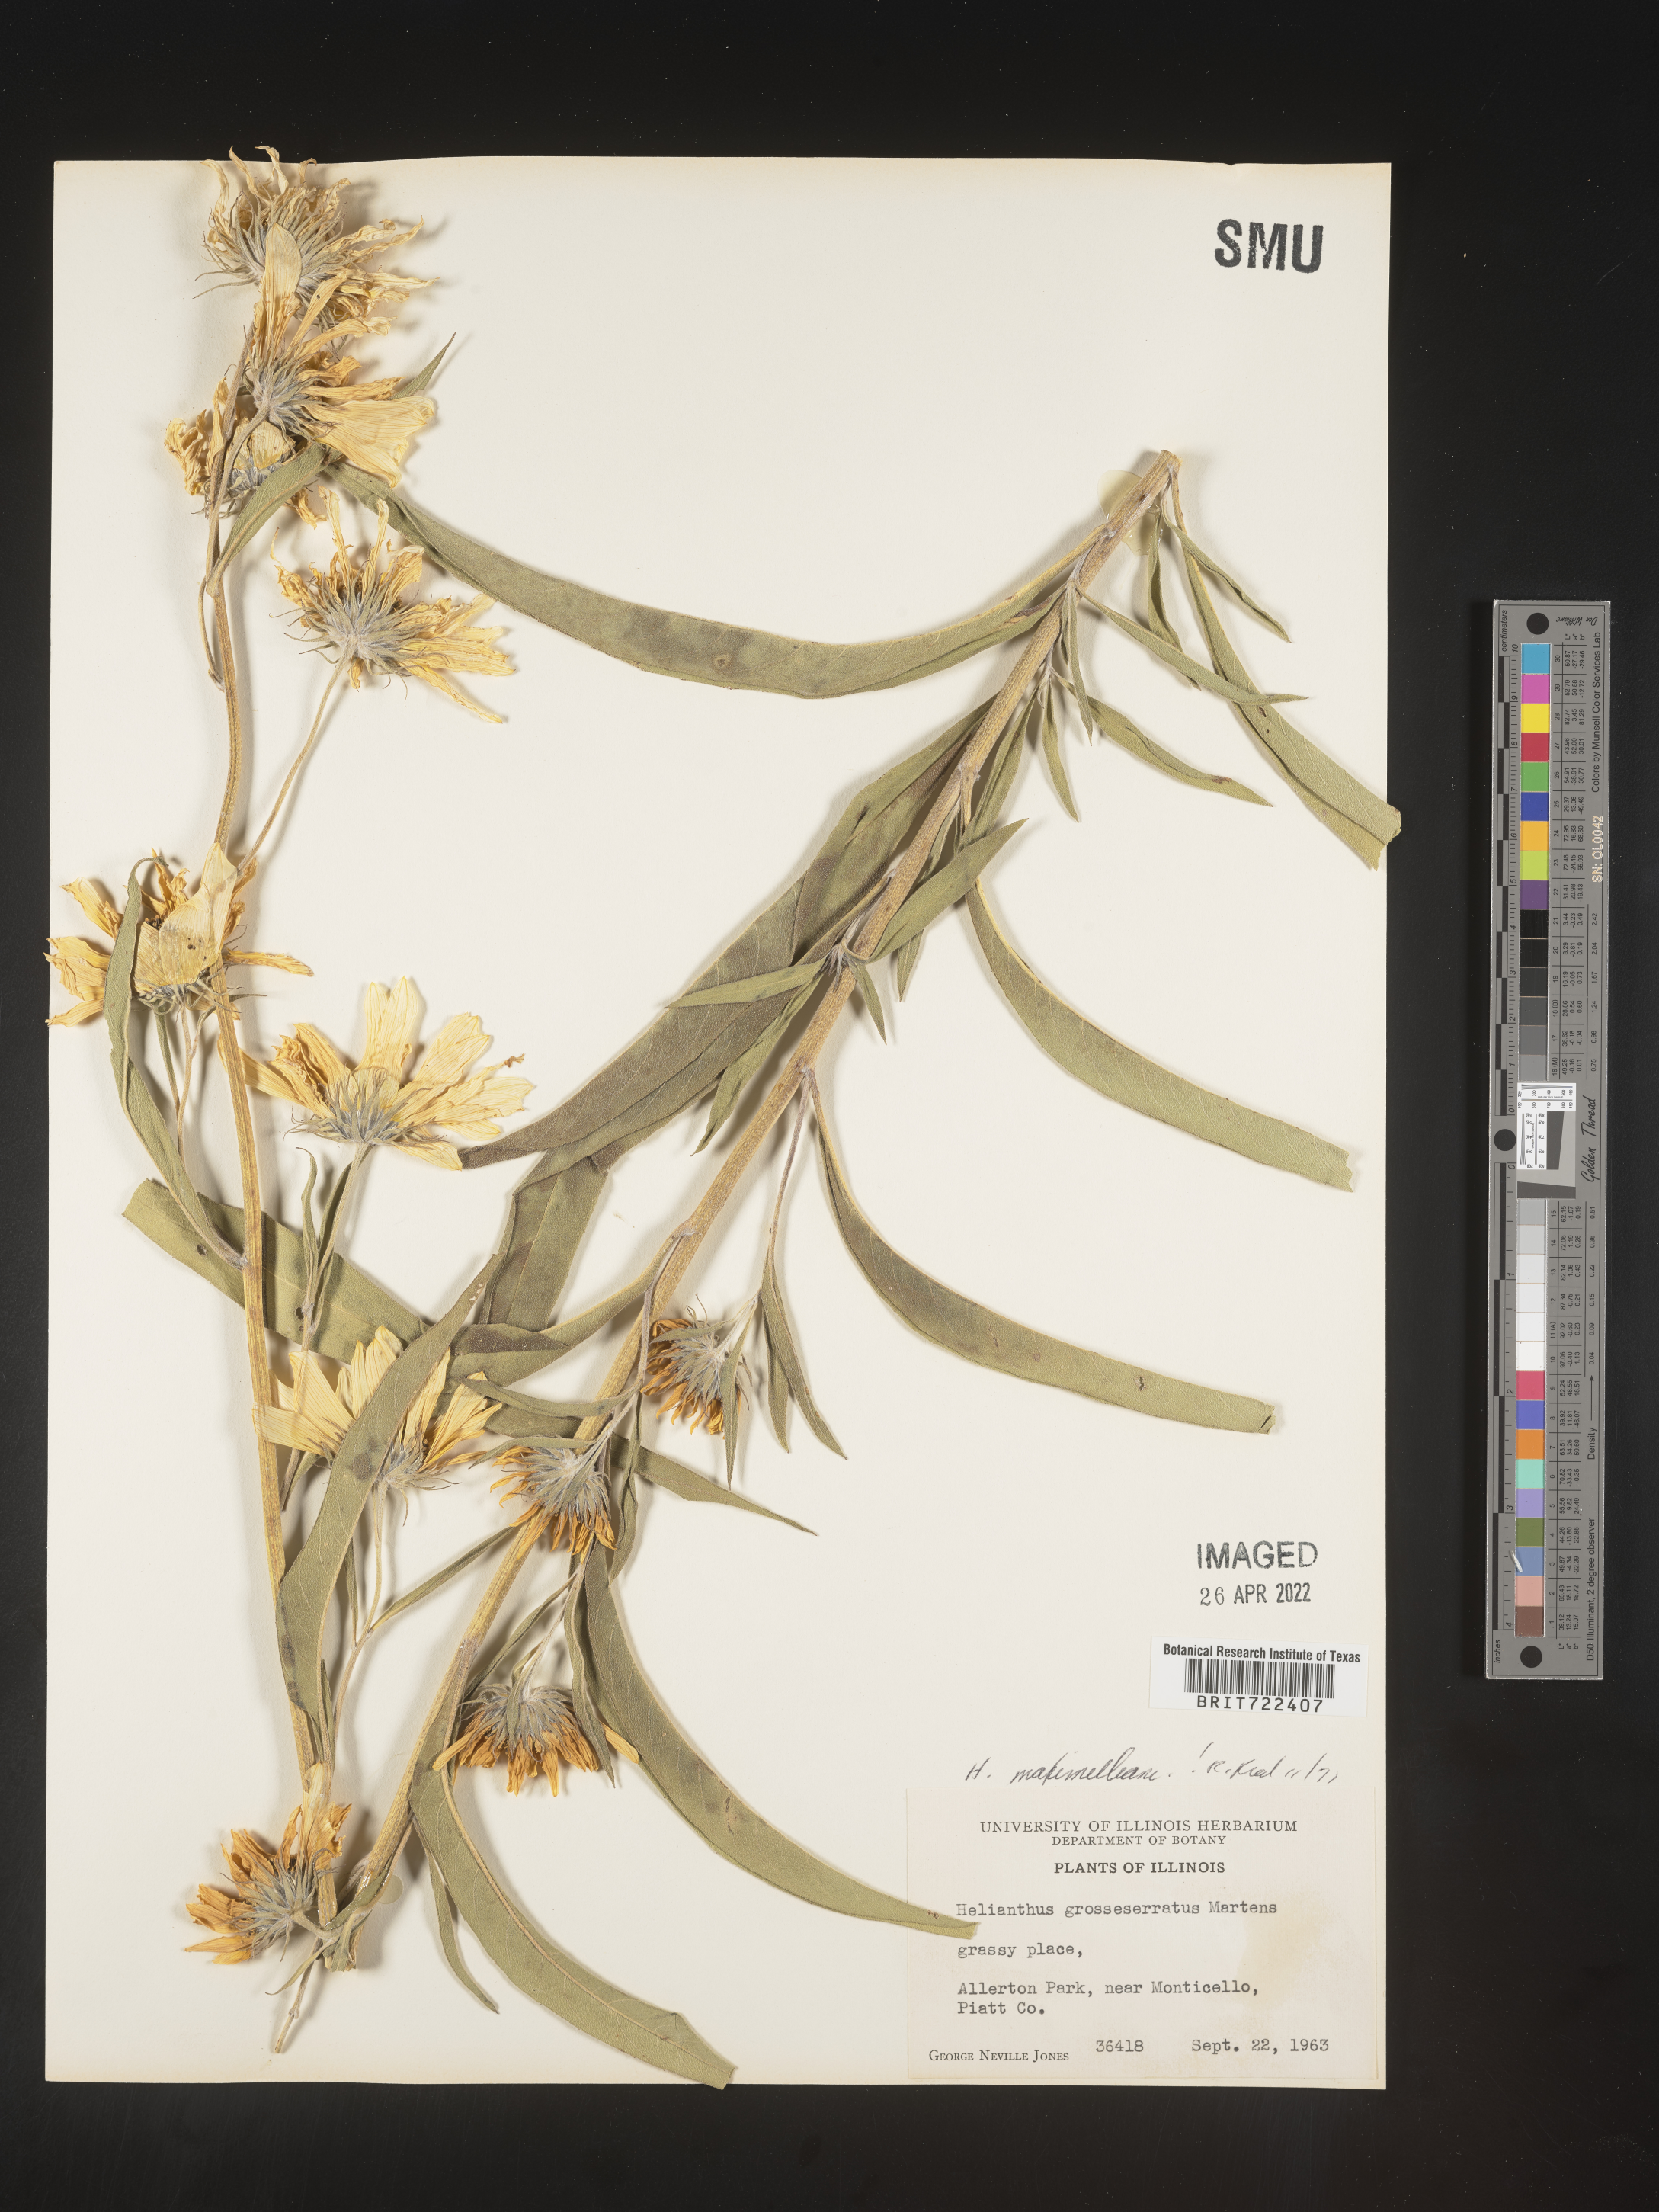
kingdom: Plantae
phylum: Tracheophyta
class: Magnoliopsida
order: Asterales
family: Asteraceae
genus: Helianthus
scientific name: Helianthus maximiliani
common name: Maximilian's sunflower
